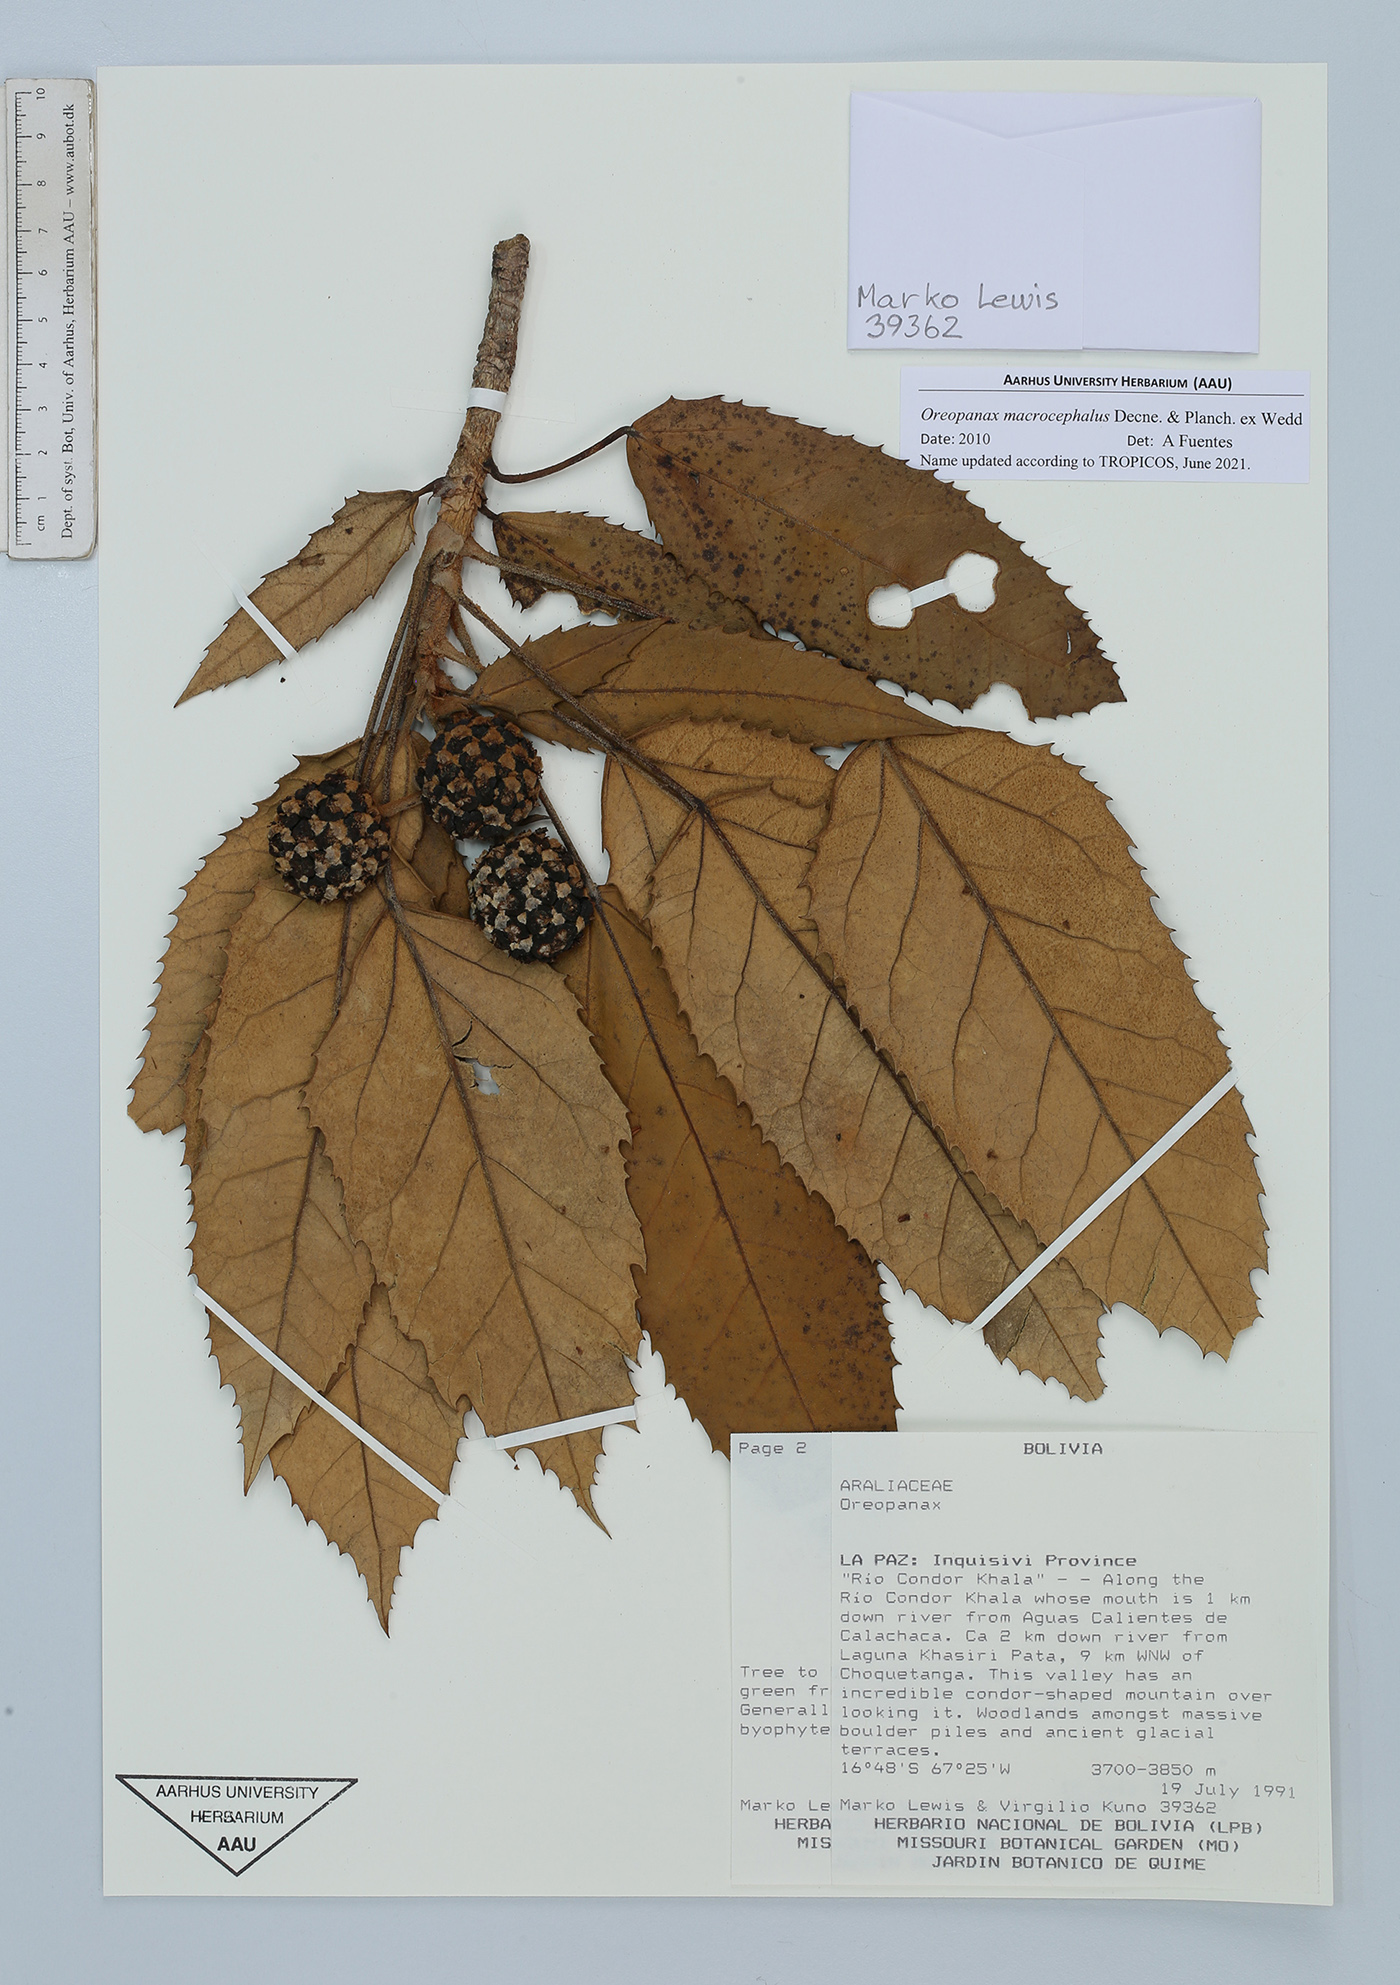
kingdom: Plantae
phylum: Tracheophyta
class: Magnoliopsida
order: Apiales
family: Araliaceae
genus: Oreopanax
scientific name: Oreopanax macrocephalus
